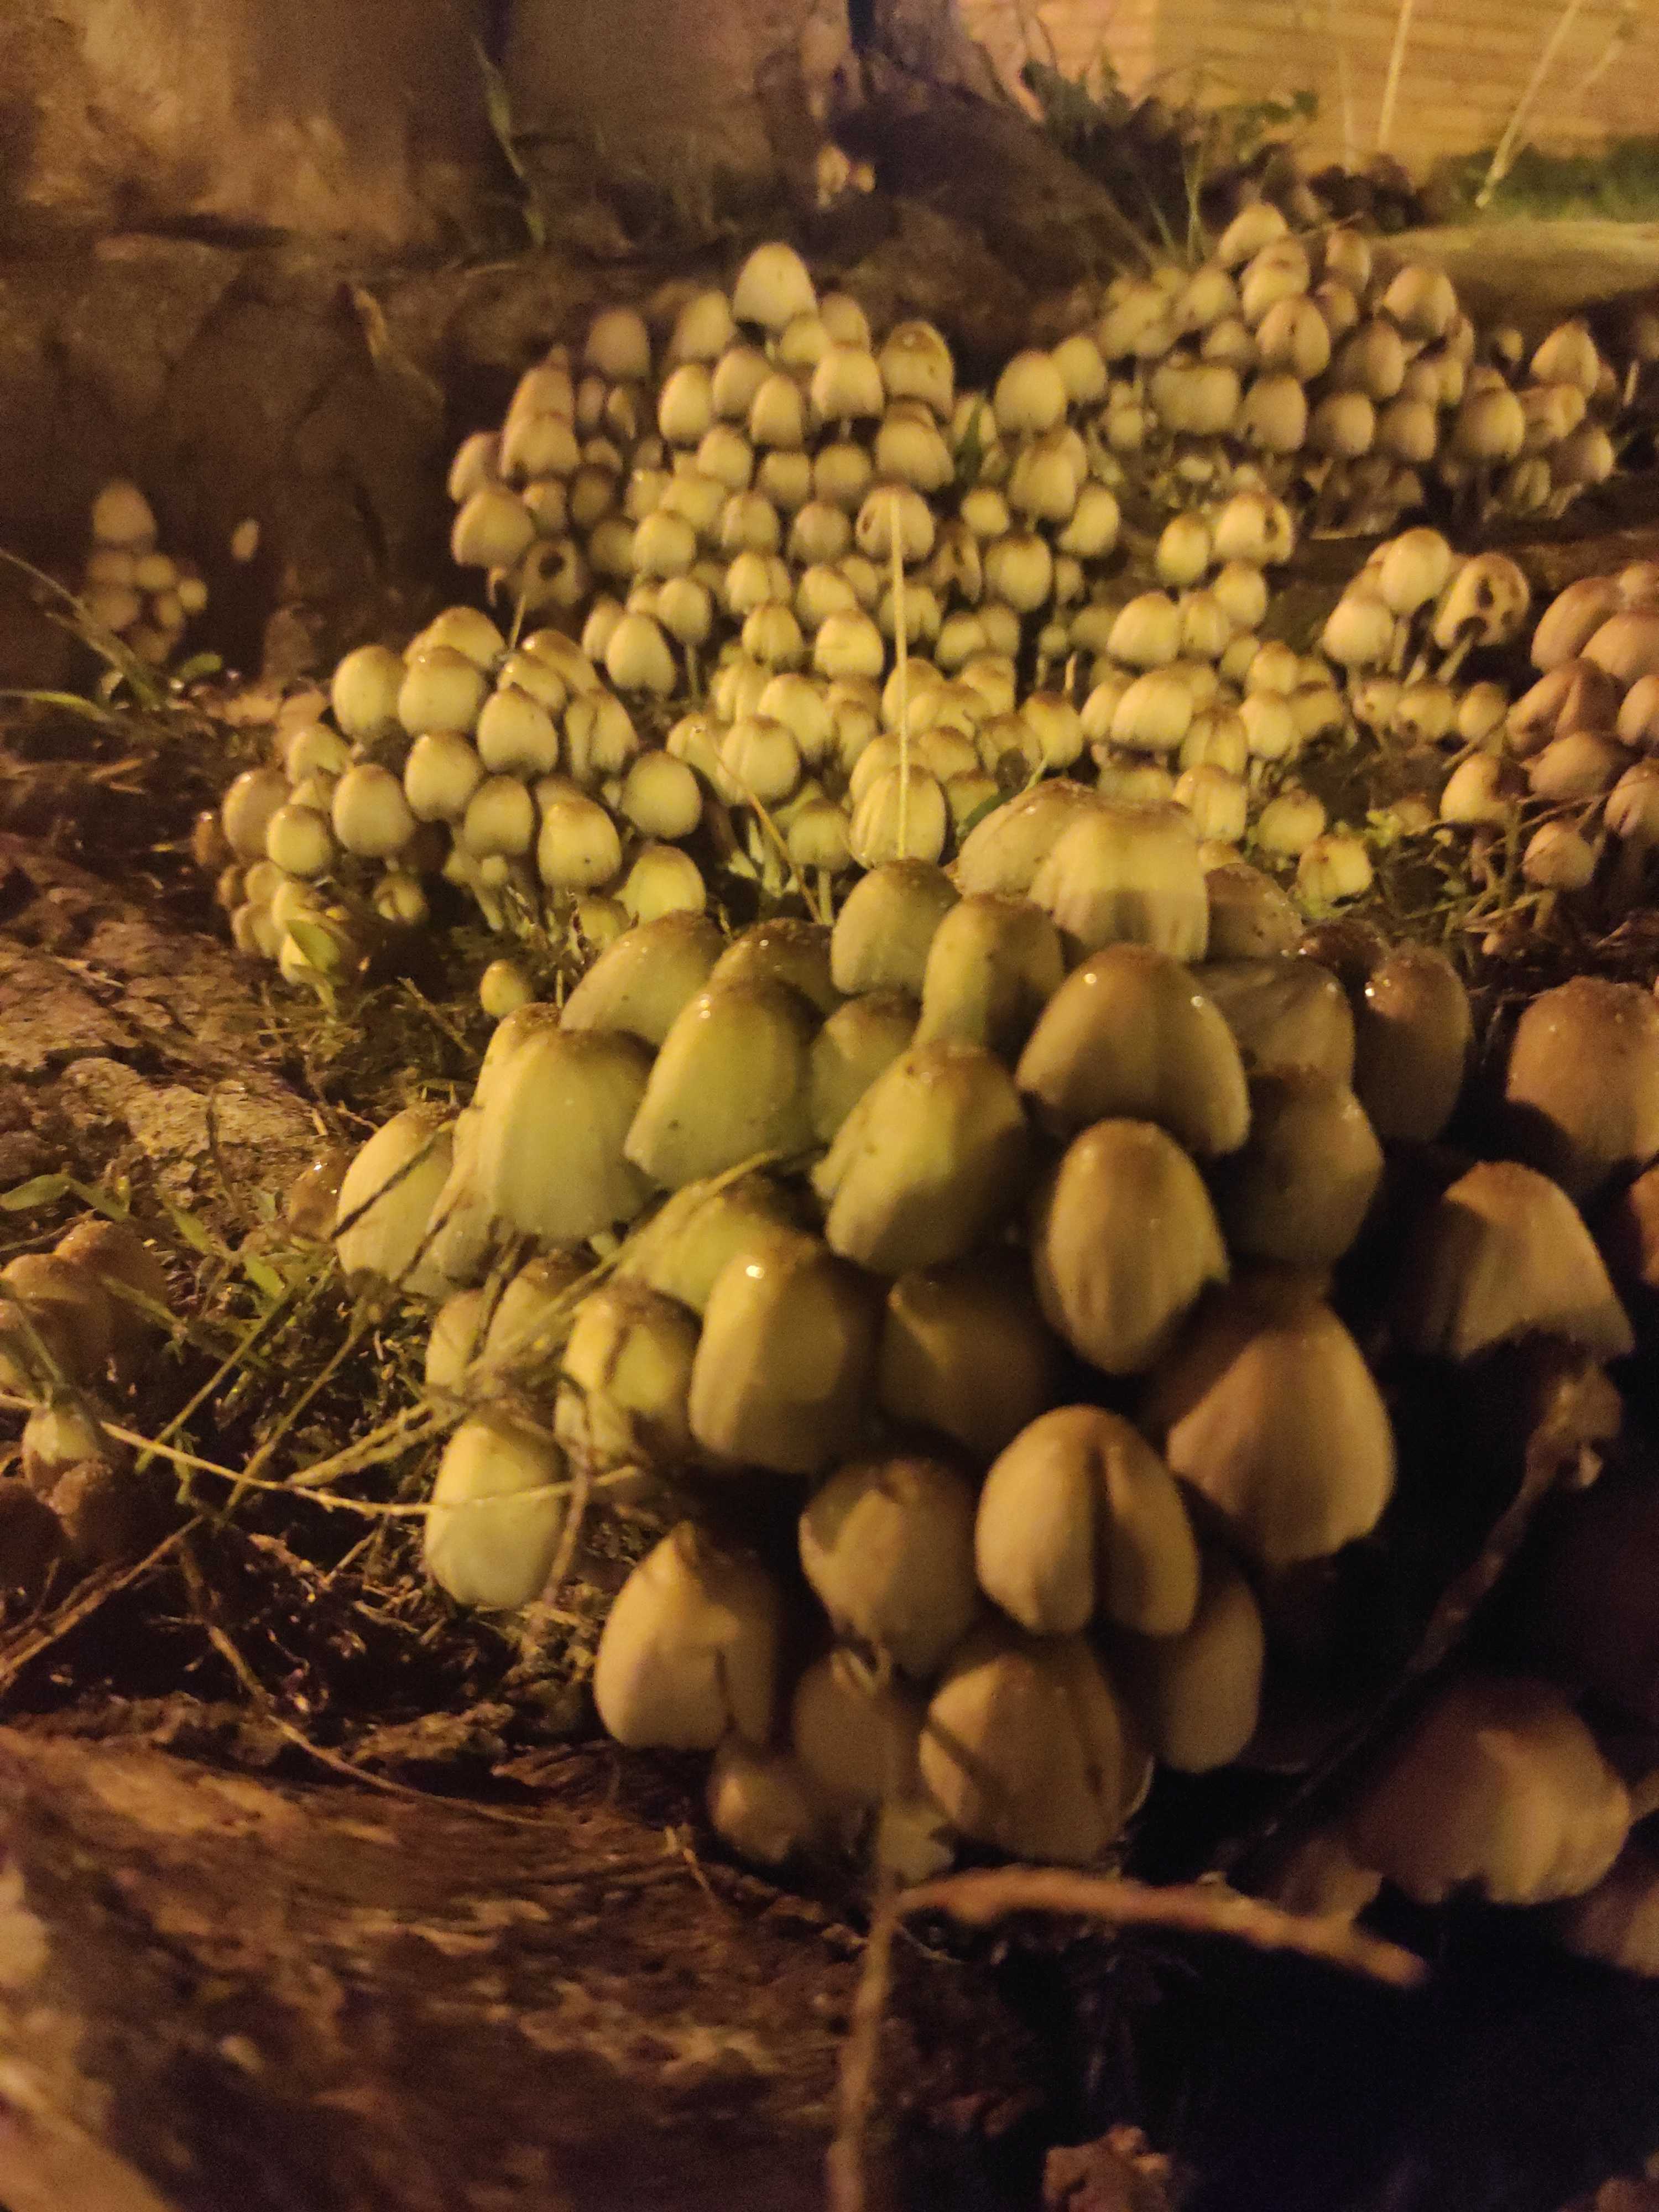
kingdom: Fungi
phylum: Basidiomycota
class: Agaricomycetes
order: Agaricales
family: Psathyrellaceae
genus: Coprinellus
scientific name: Coprinellus micaceus
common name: glimmer-blækhat
